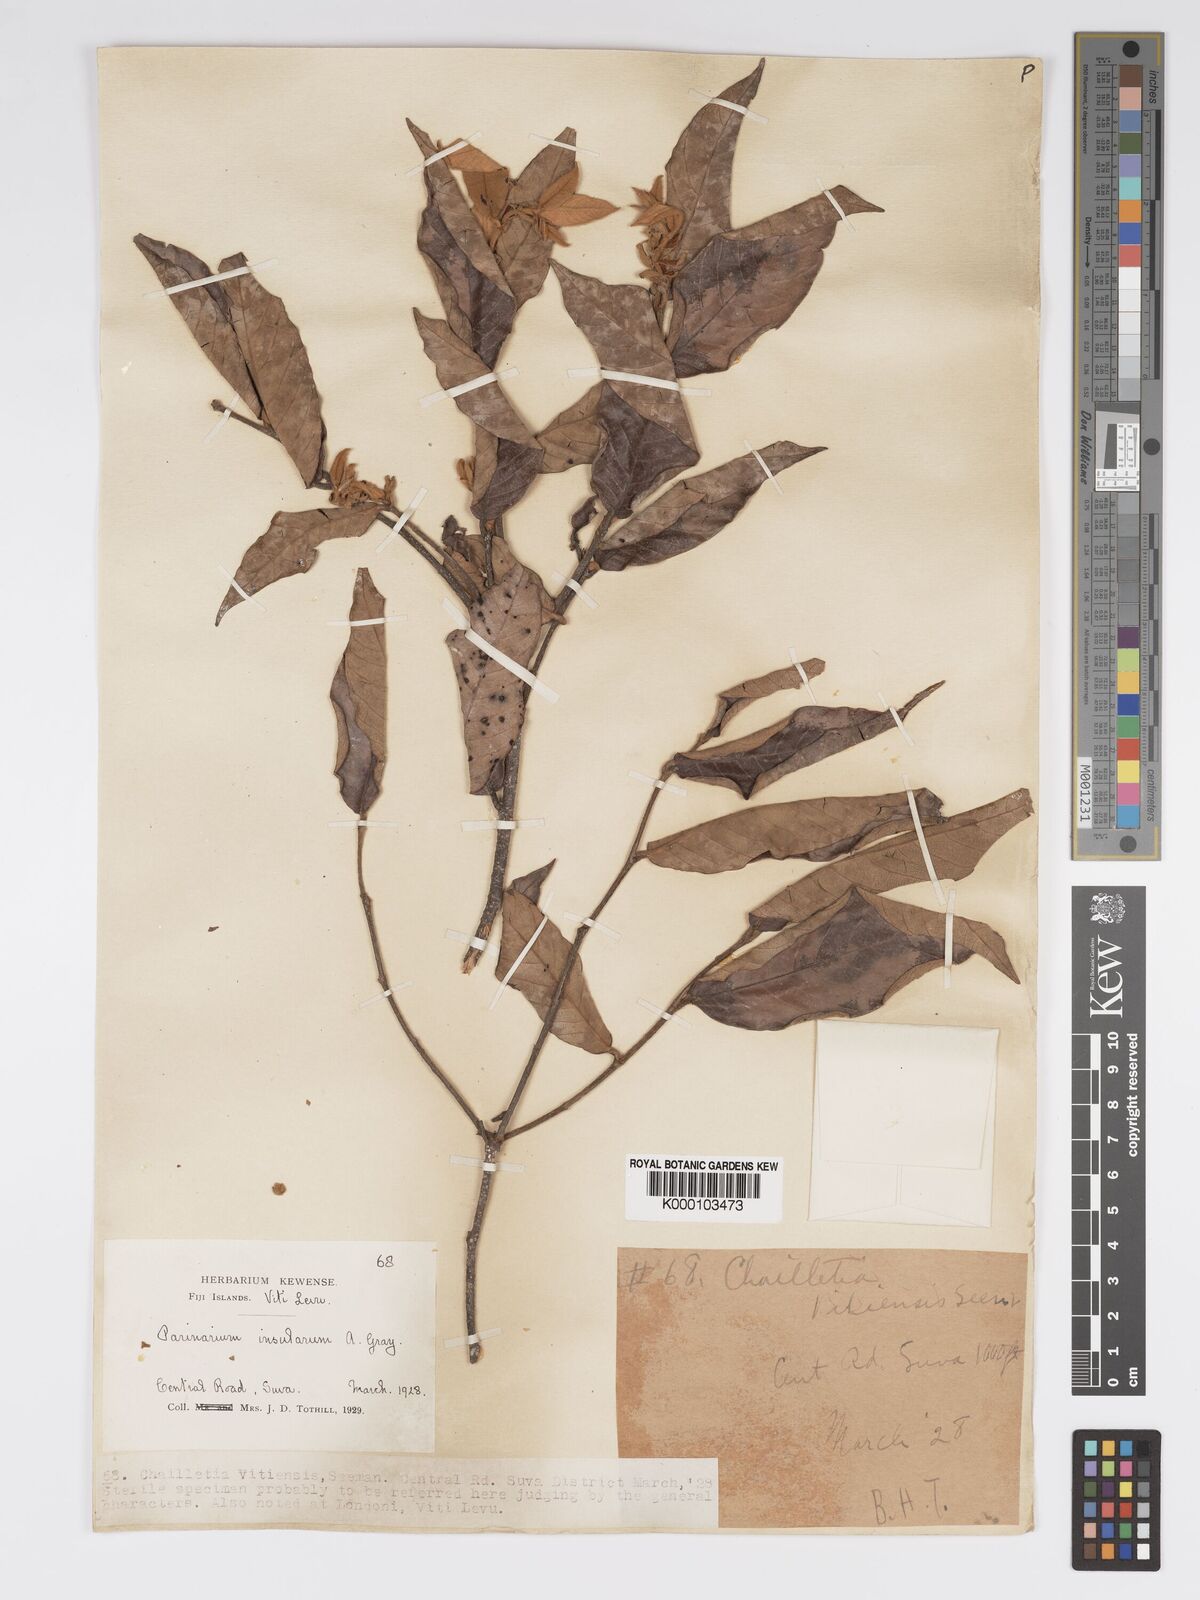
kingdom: Plantae
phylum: Tracheophyta
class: Magnoliopsida
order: Malpighiales
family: Chrysobalanaceae
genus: Parinari
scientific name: Parinari insularum
